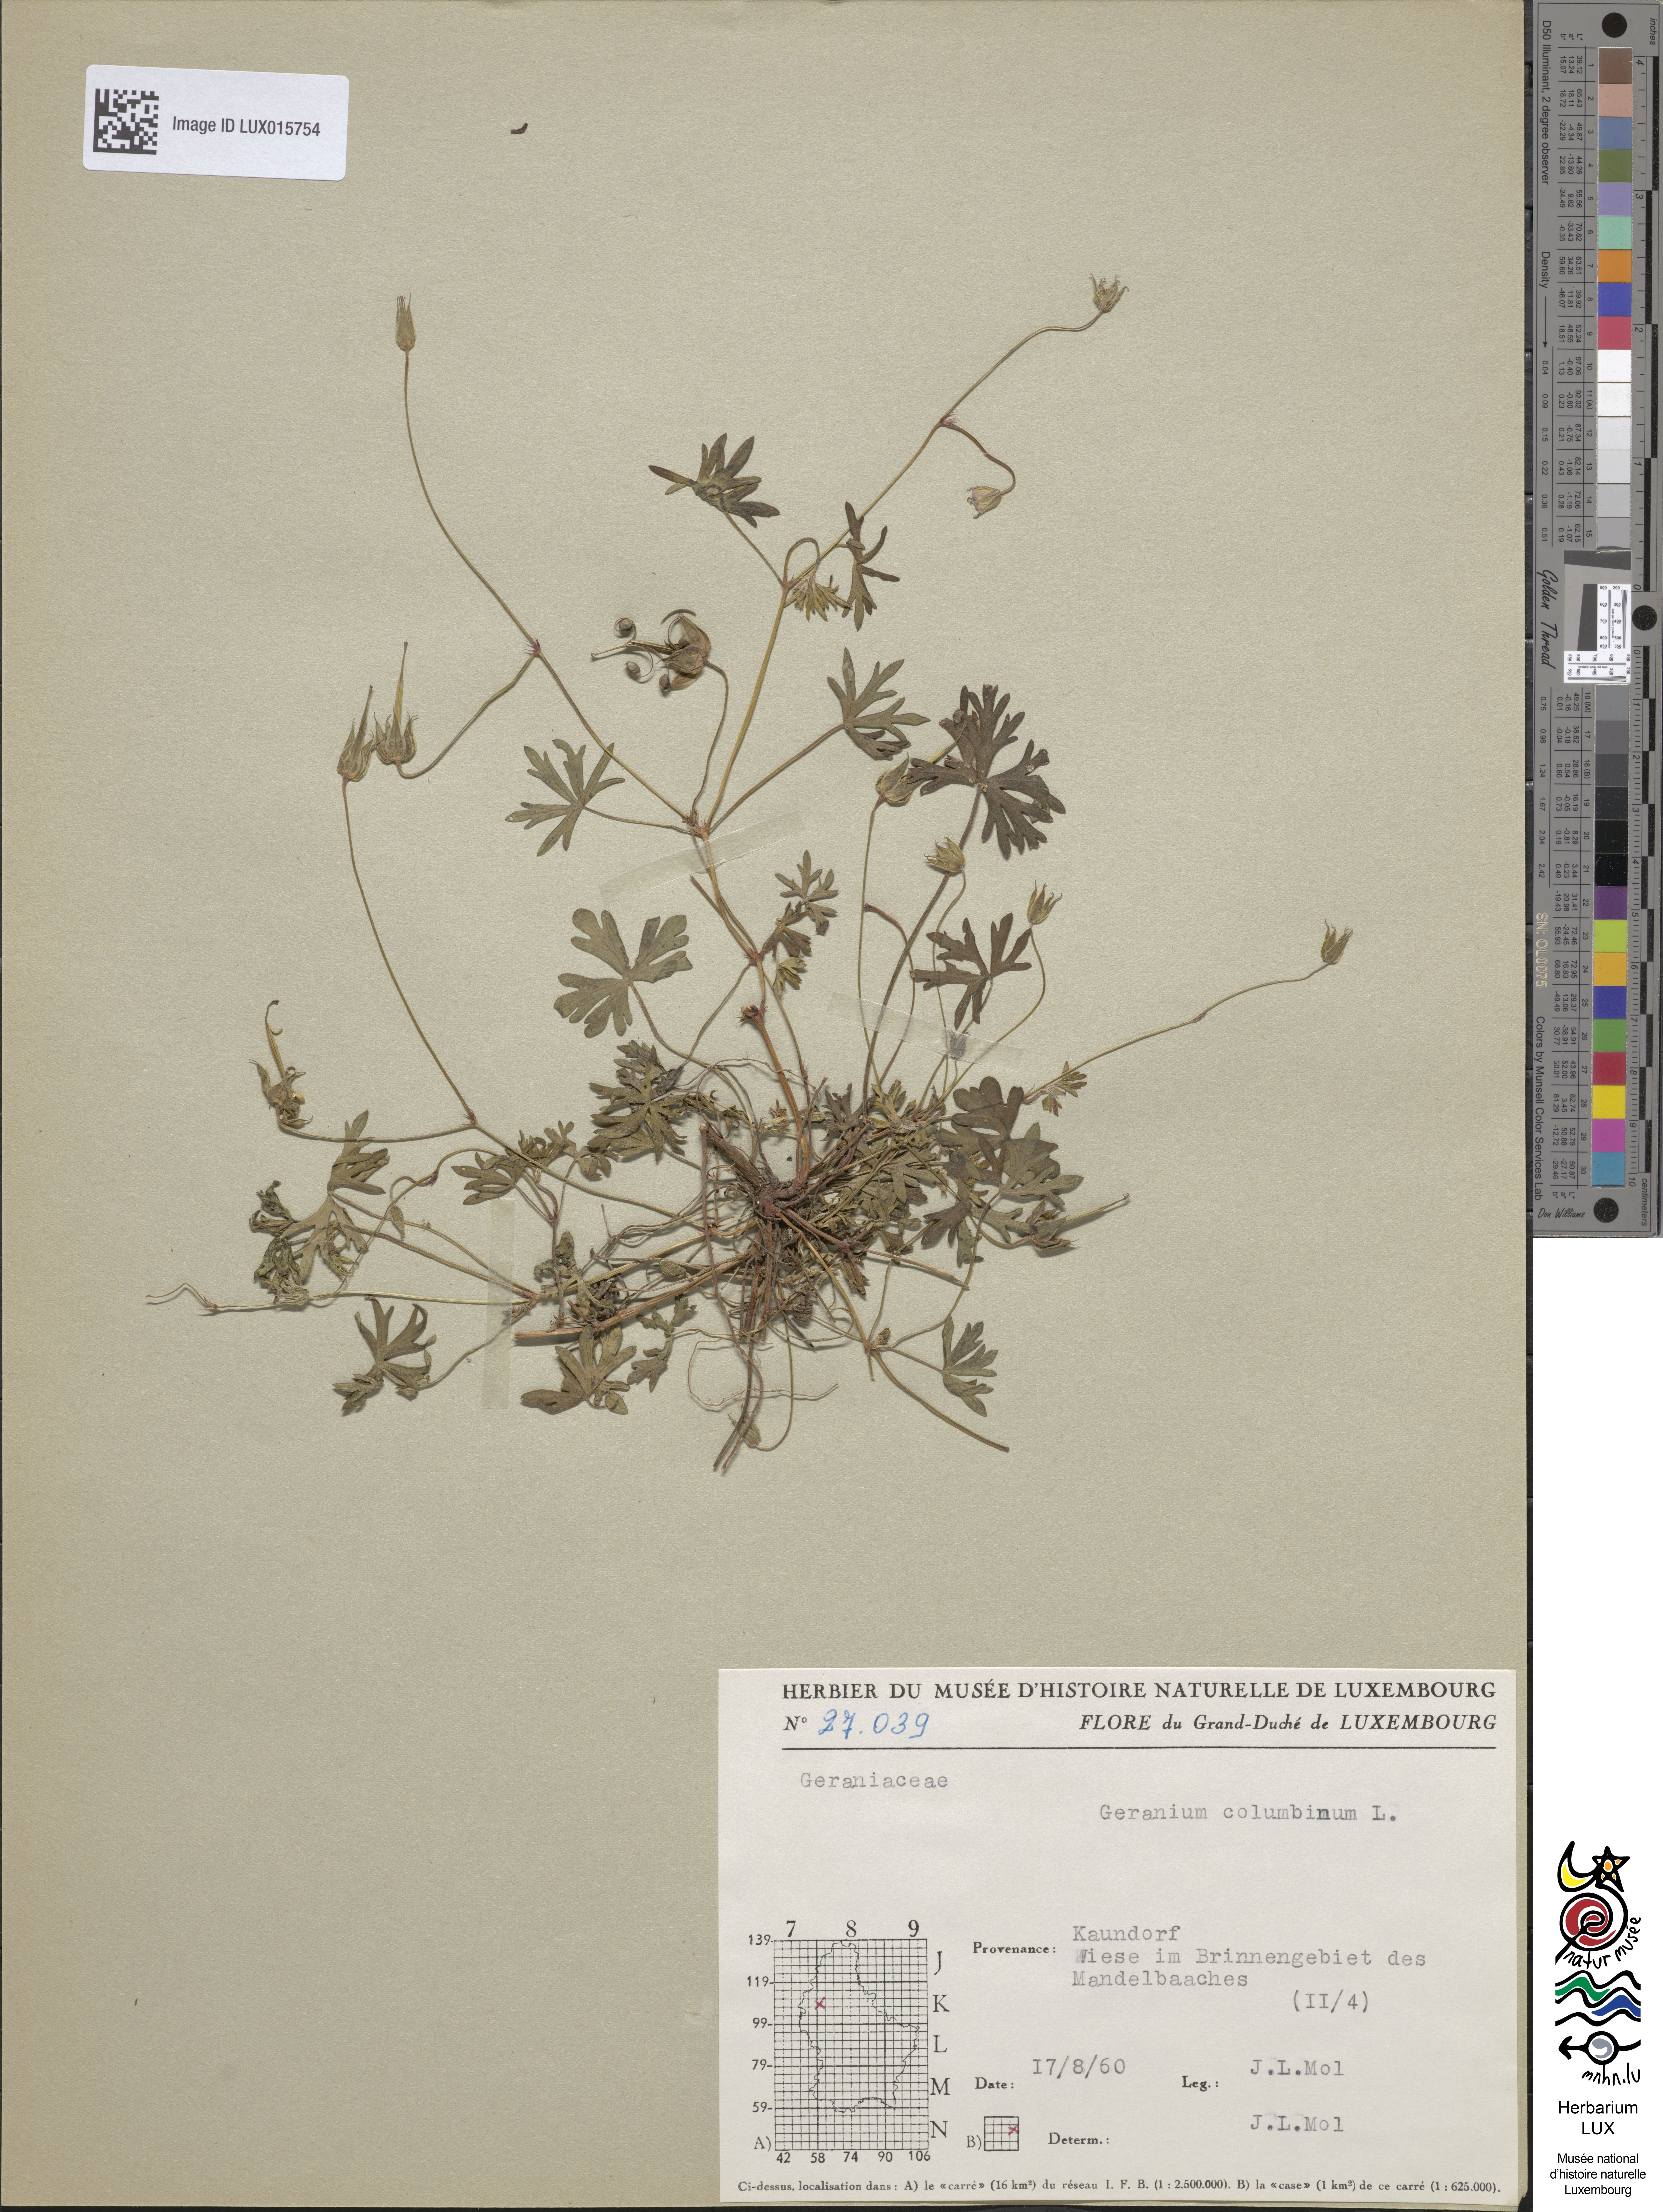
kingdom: Plantae
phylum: Tracheophyta
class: Magnoliopsida
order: Geraniales
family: Geraniaceae
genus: Geranium
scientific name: Geranium columbinum
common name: Long-stalked crane's-bill
